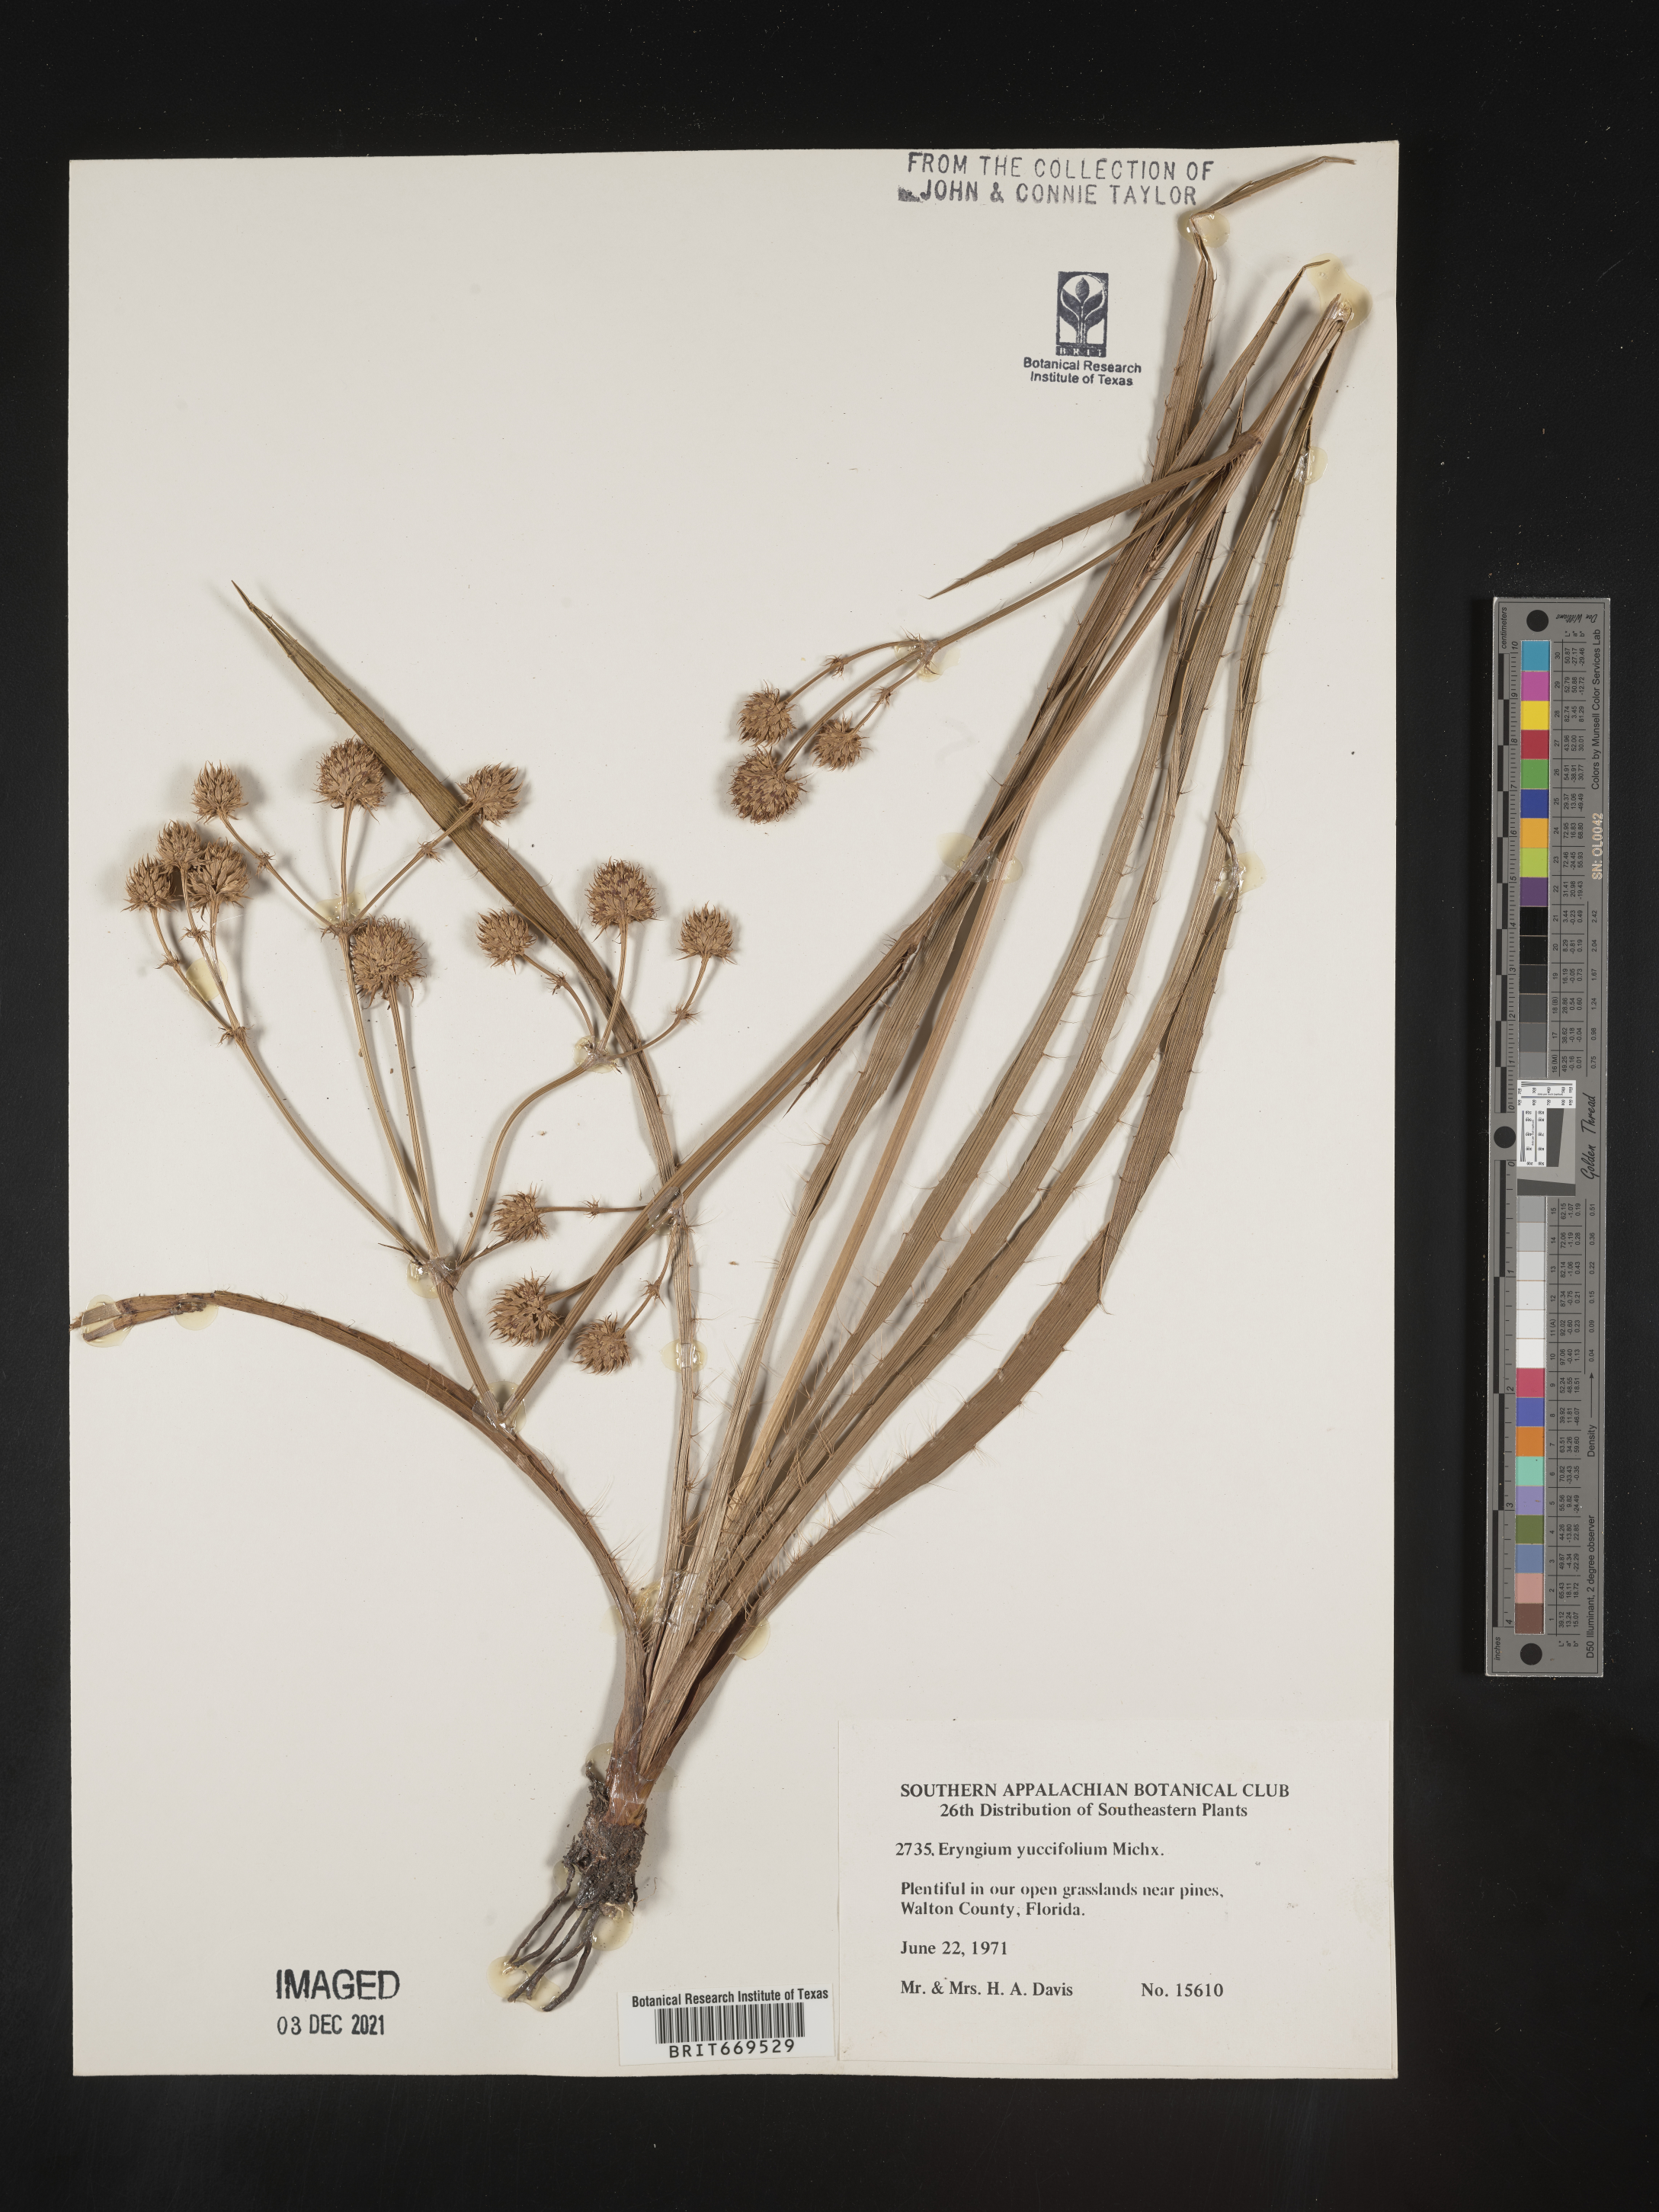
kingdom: Plantae
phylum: Tracheophyta
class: Magnoliopsida
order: Apiales
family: Apiaceae
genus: Eryngium
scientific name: Eryngium yuccifolium
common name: Button eryngo
